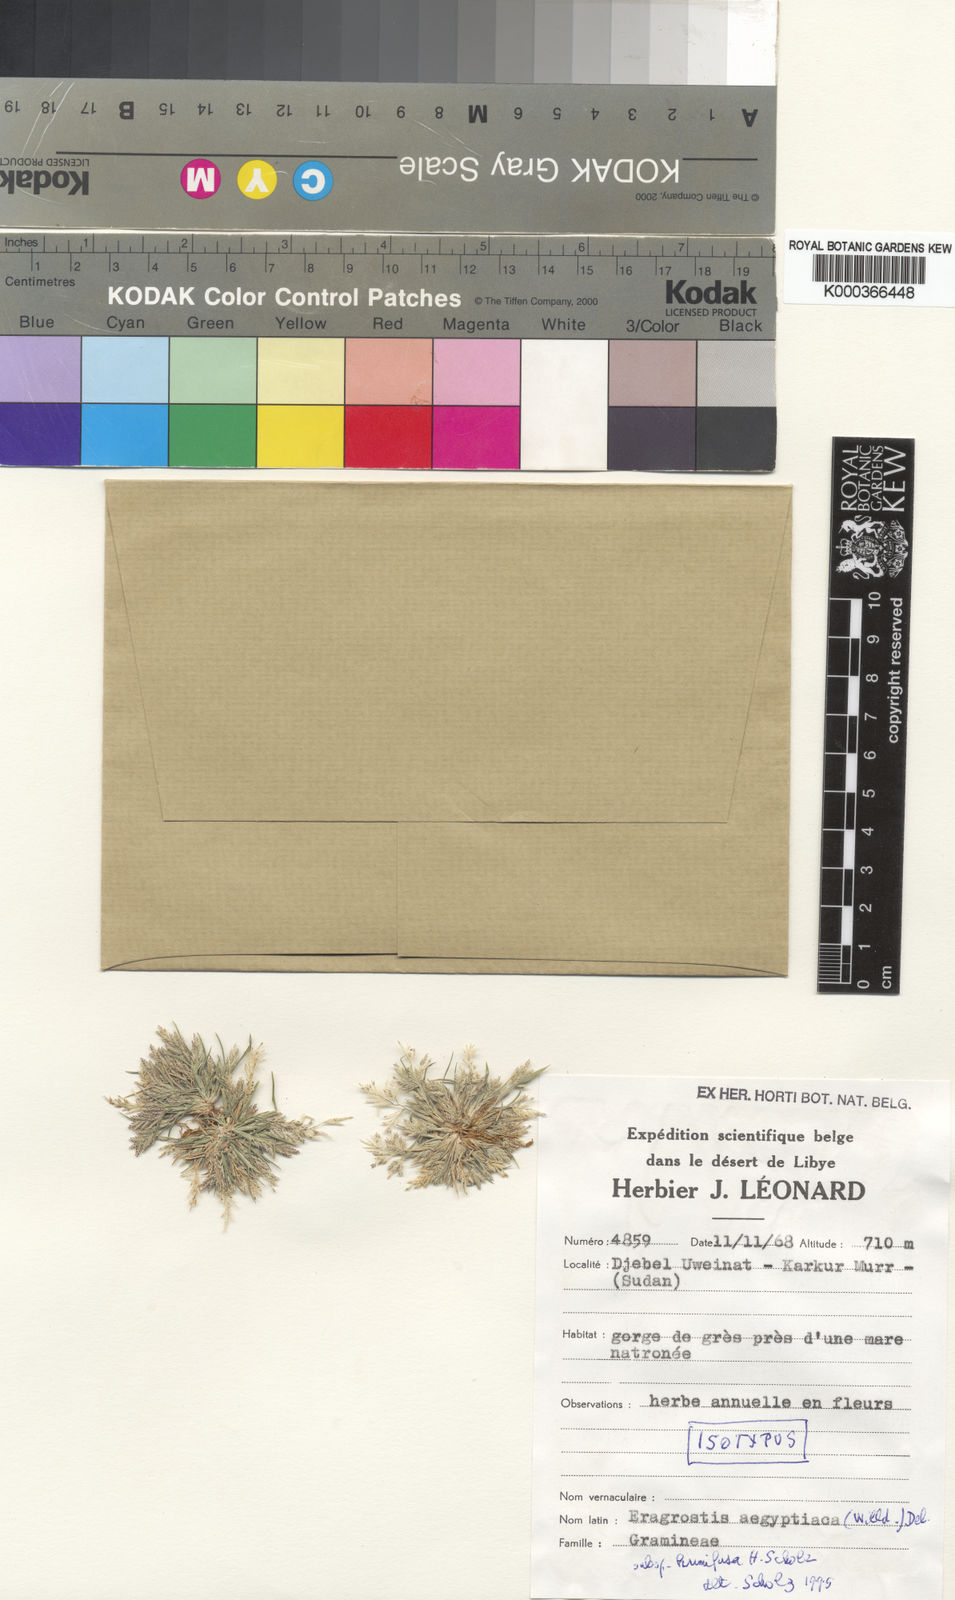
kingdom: Plantae
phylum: Tracheophyta
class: Liliopsida
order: Poales
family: Poaceae
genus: Eragrostis
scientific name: Eragrostis aegyptiaca
